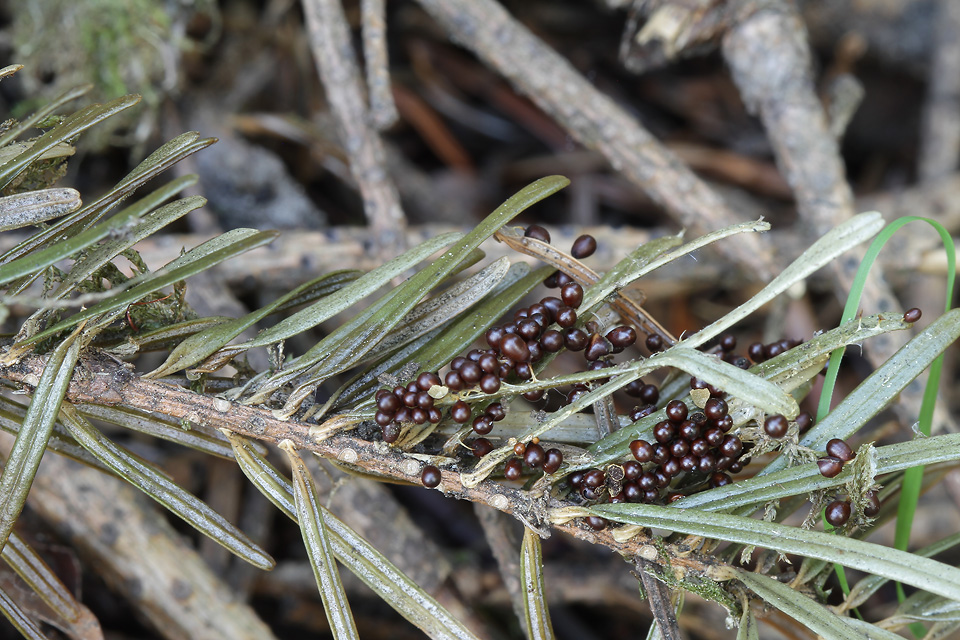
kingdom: Protozoa
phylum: Mycetozoa
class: Myxomycetes
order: Physarales
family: Physaraceae
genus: Leocarpus
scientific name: Leocarpus fragilis
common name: poleret glatfrø
